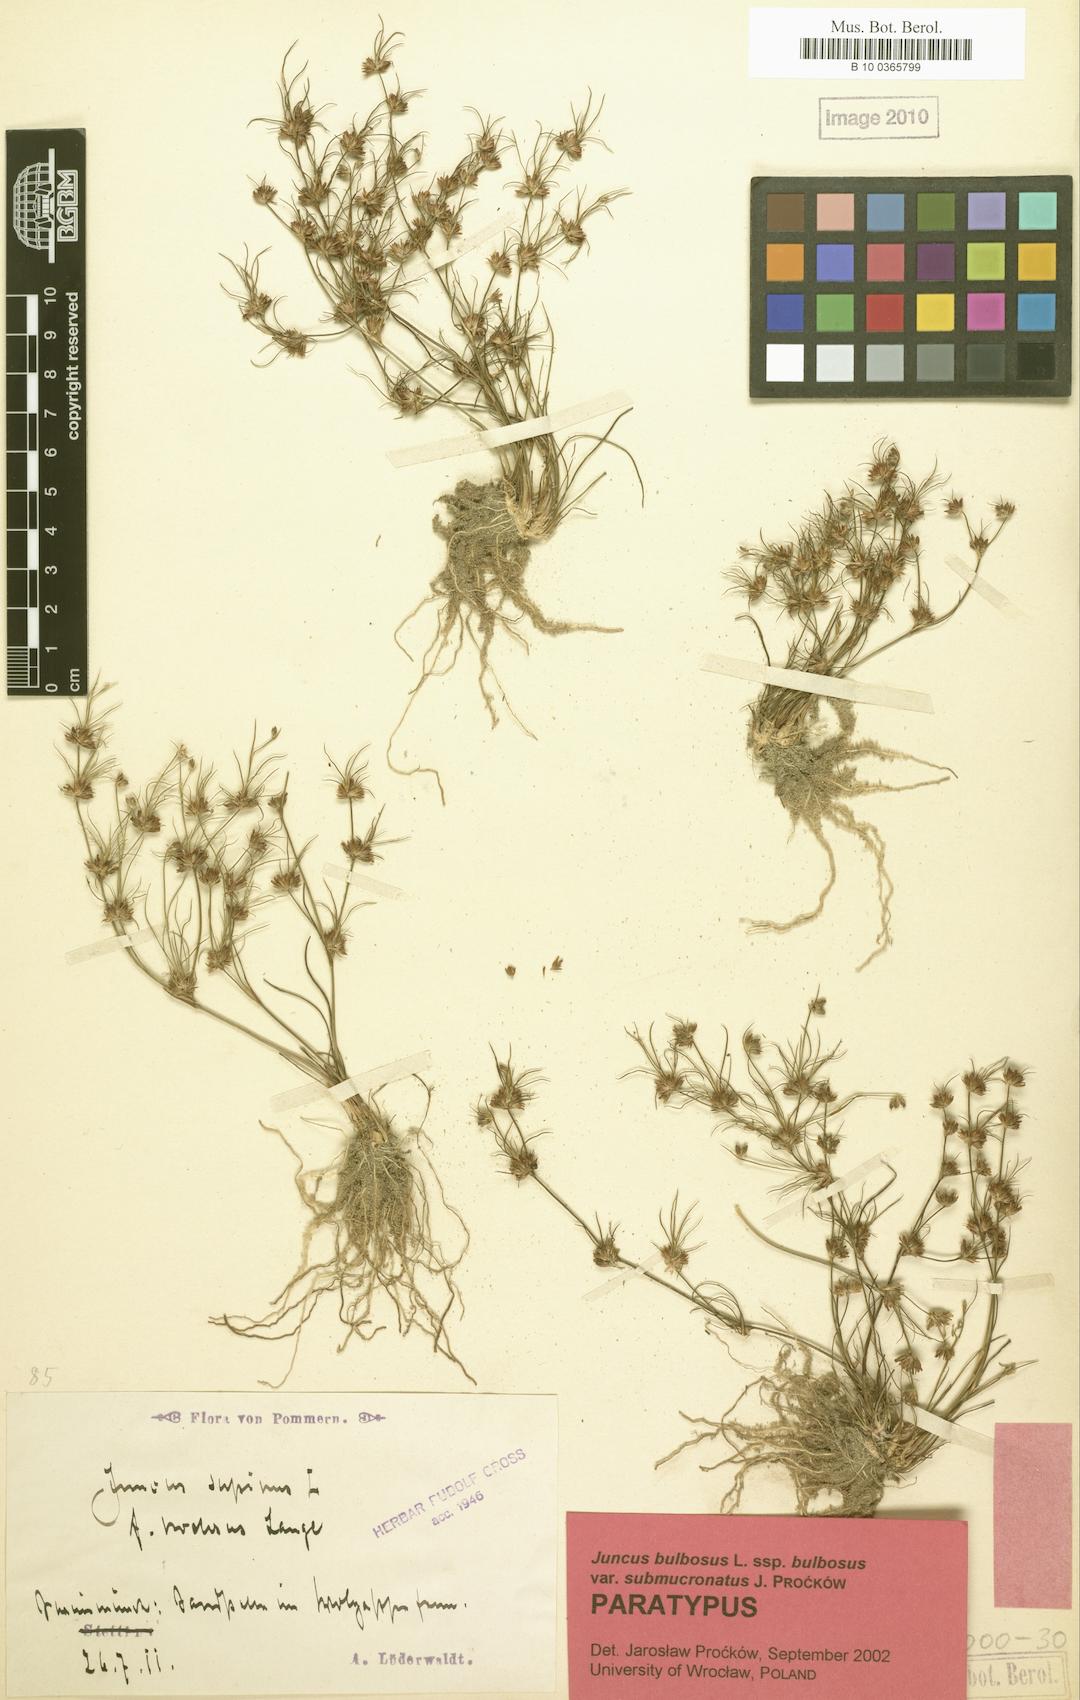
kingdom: Plantae
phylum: Tracheophyta
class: Liliopsida
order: Poales
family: Juncaceae
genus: Juncus
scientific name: Juncus bulbosus
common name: Bulbous rush
